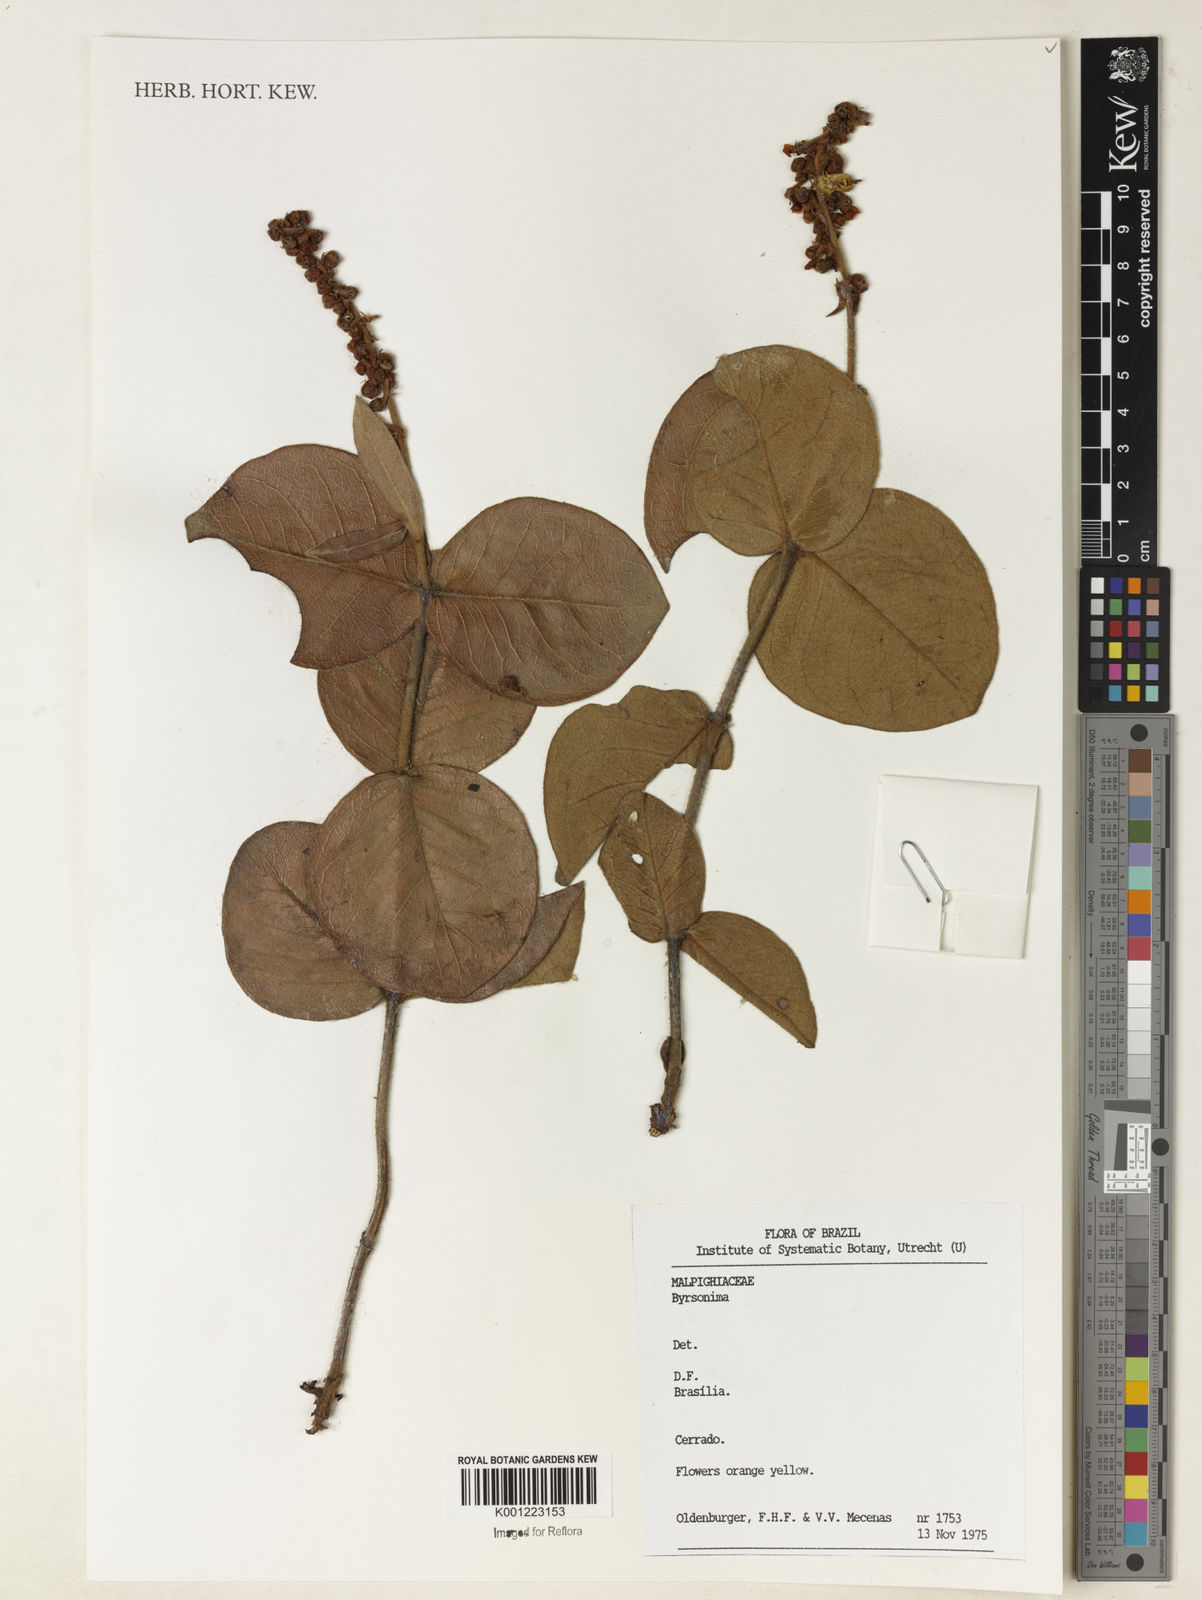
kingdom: Plantae
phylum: Tracheophyta
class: Magnoliopsida
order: Malpighiales
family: Malpighiaceae
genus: Byrsonima
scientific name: Byrsonima
